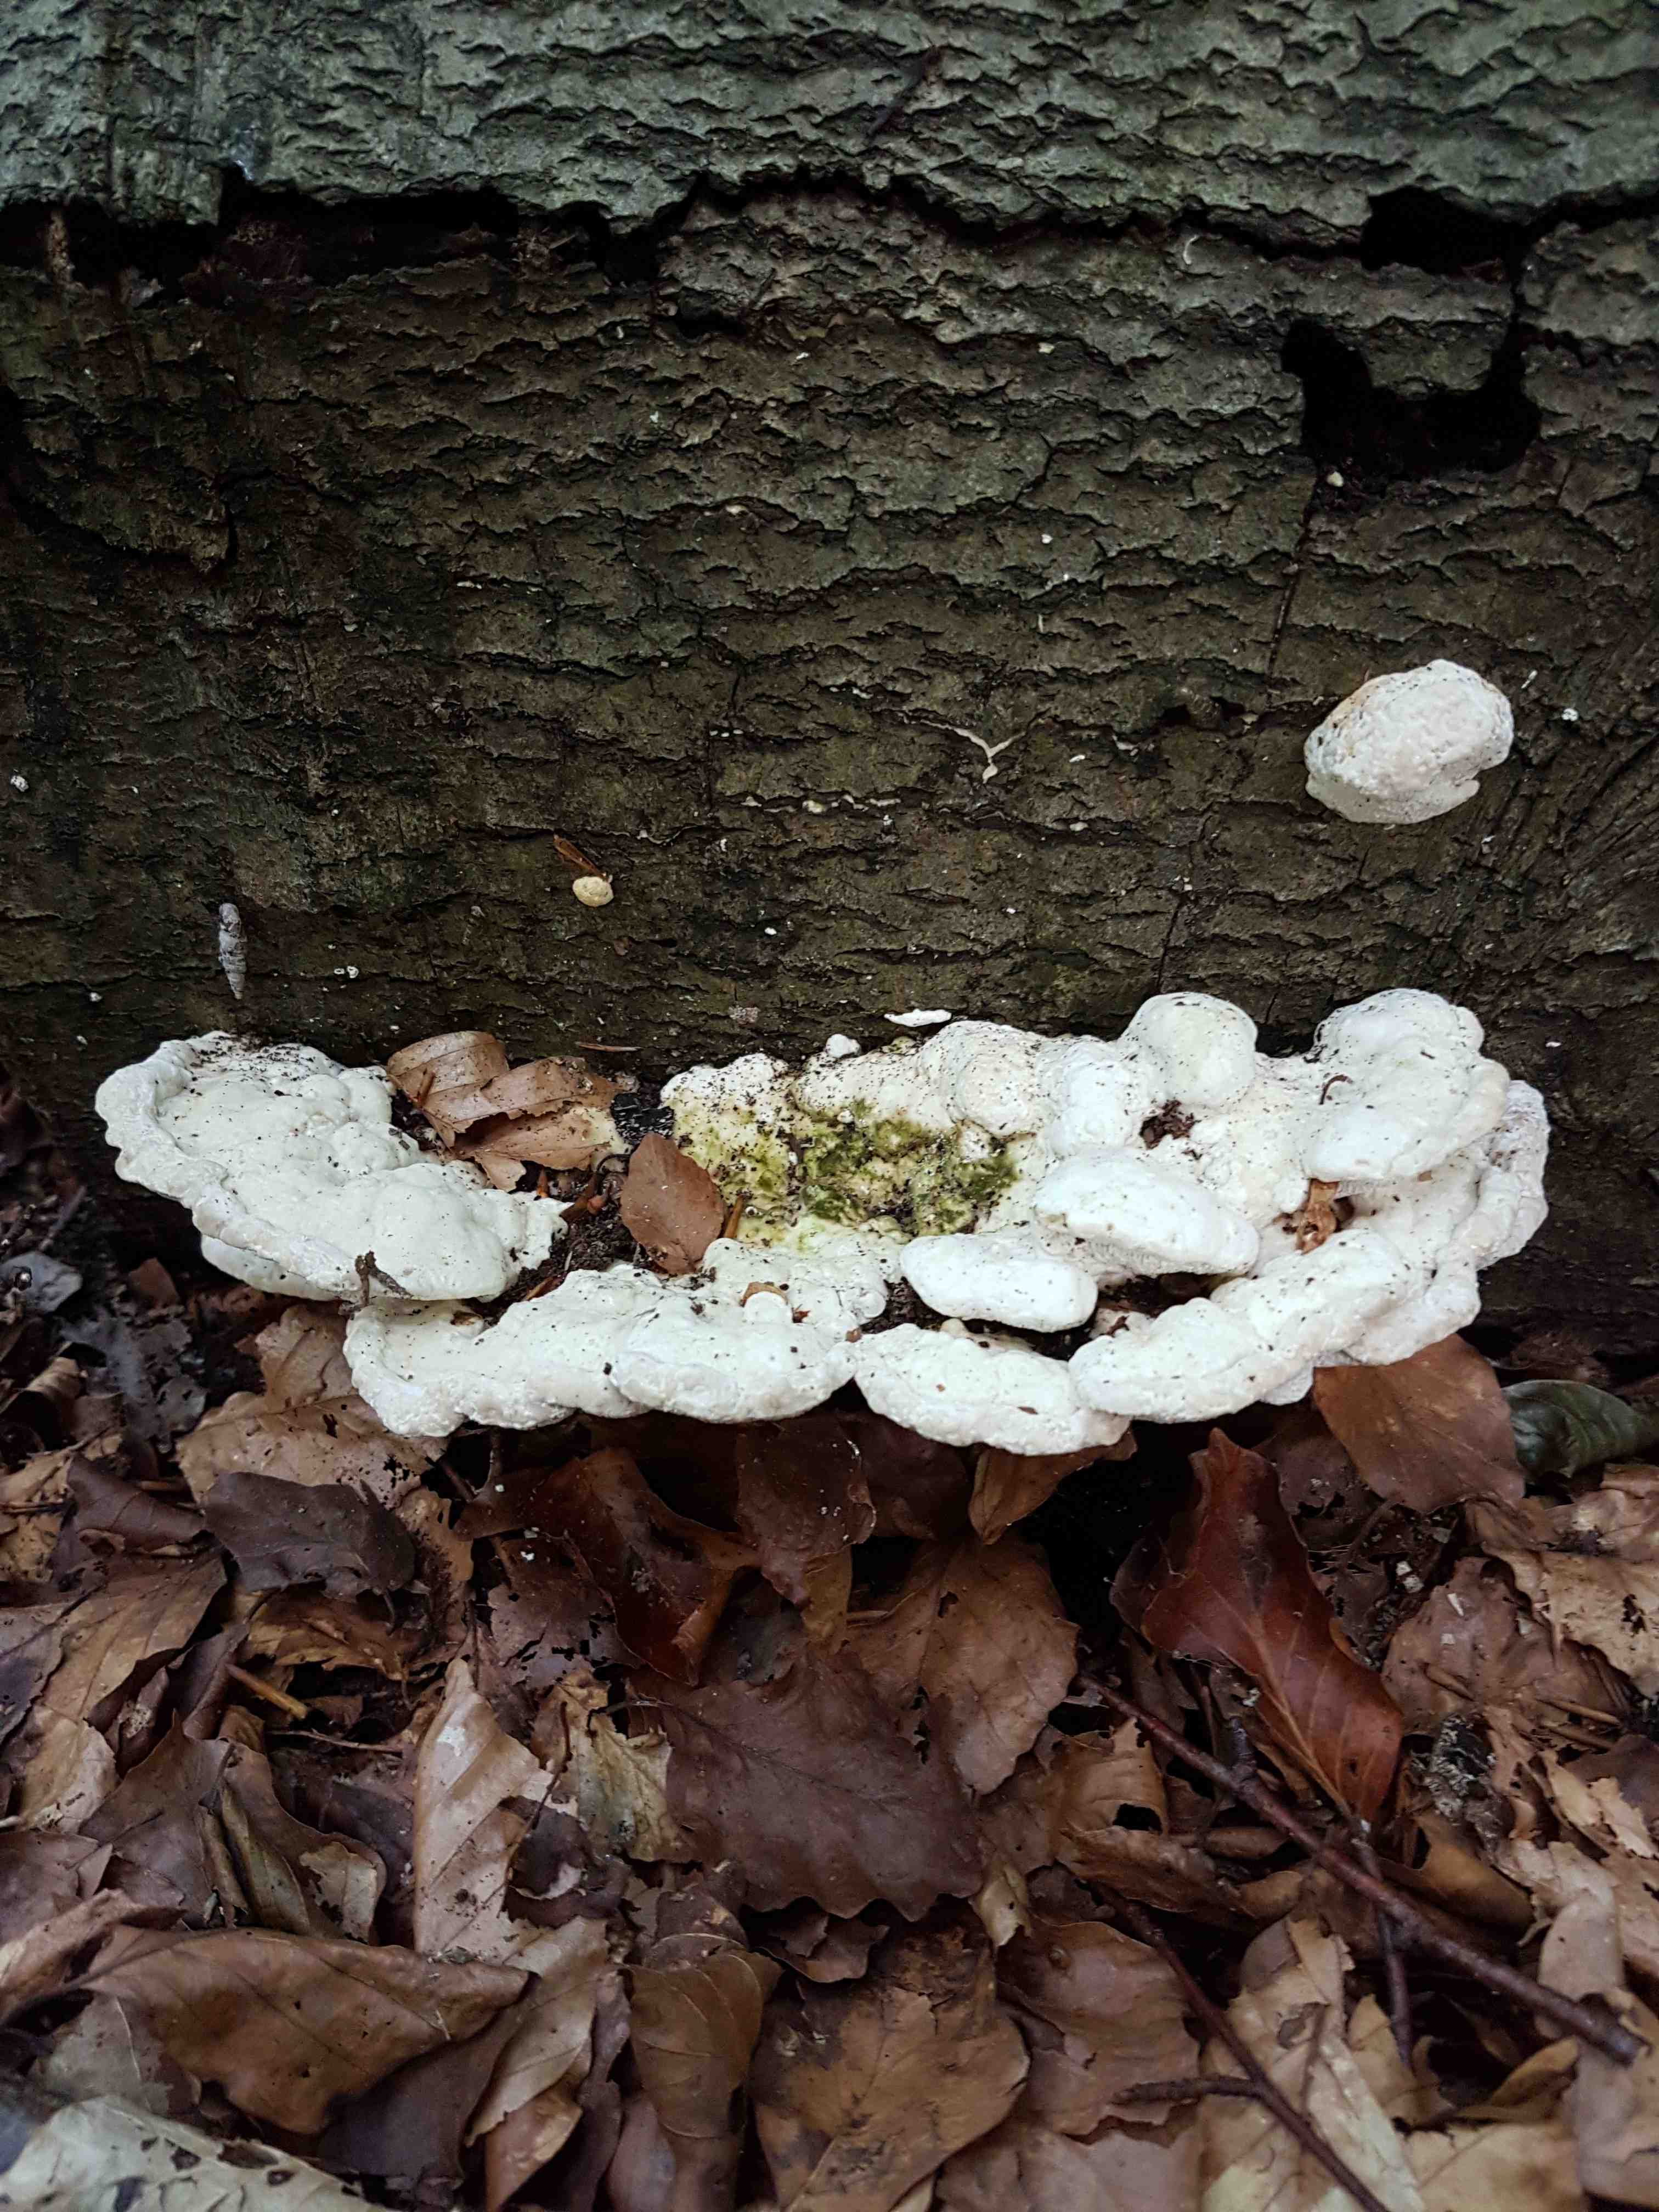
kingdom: Fungi
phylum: Basidiomycota
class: Agaricomycetes
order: Polyporales
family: Polyporaceae
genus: Trametes
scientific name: Trametes gibbosa
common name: puklet læderporesvamp
